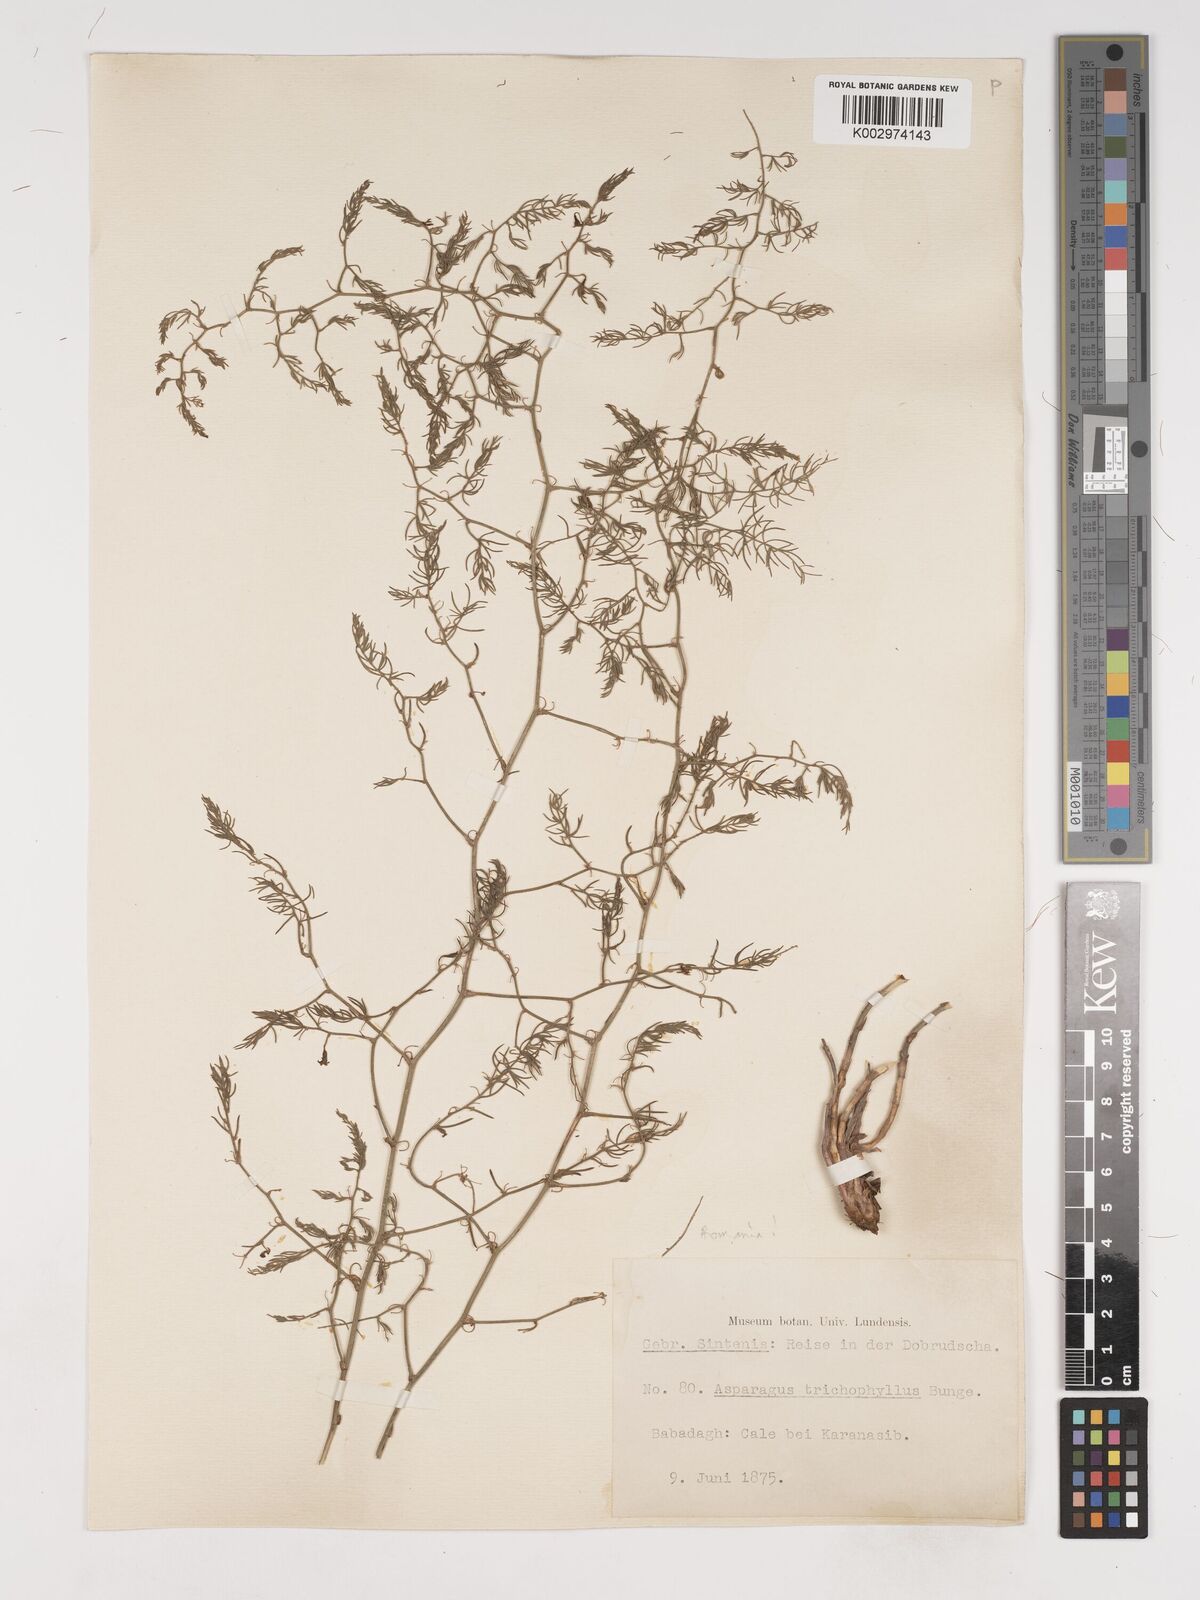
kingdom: Plantae
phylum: Tracheophyta
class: Liliopsida
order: Asparagales
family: Asparagaceae
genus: Asparagus
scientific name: Asparagus trichophyllus
